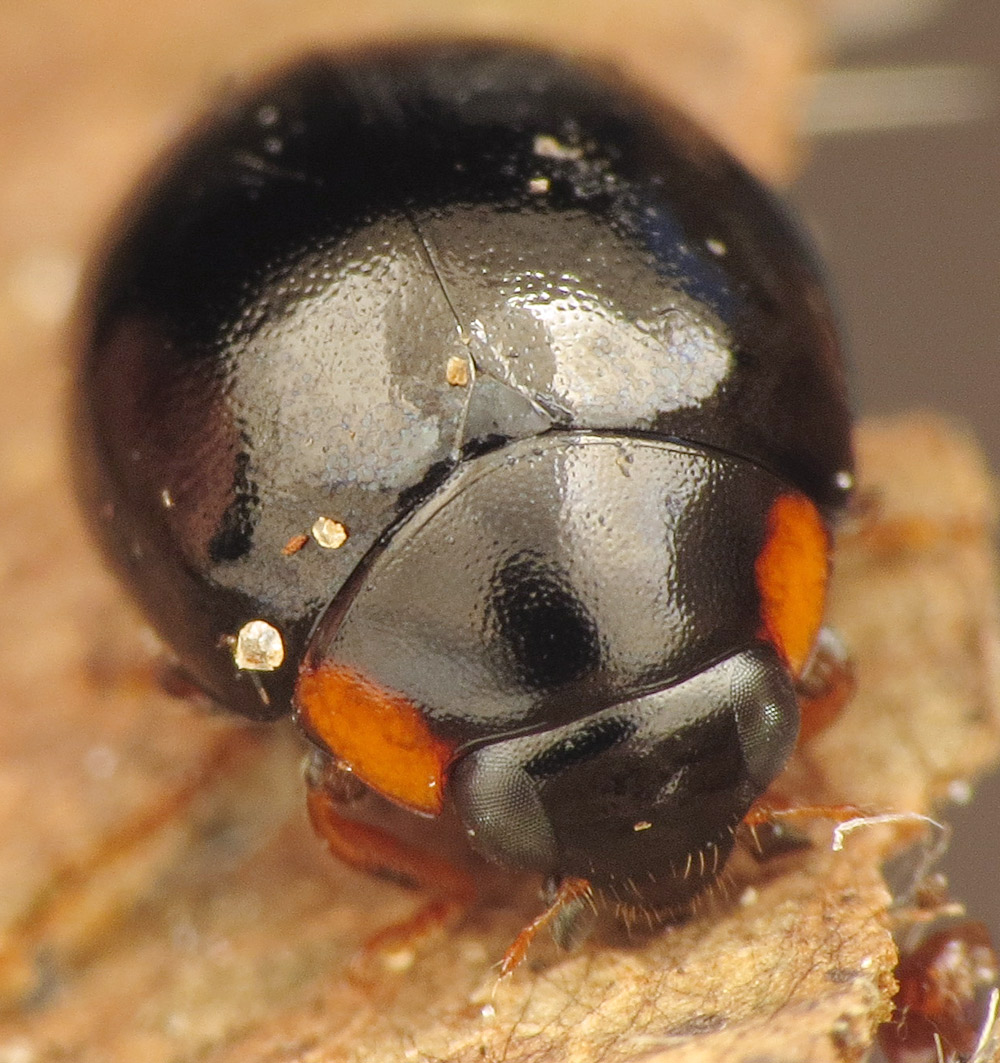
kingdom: Animalia
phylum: Arthropoda
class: Insecta
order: Coleoptera
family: Coccinellidae
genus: Hyperaspis
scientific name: Hyperaspis concolor
